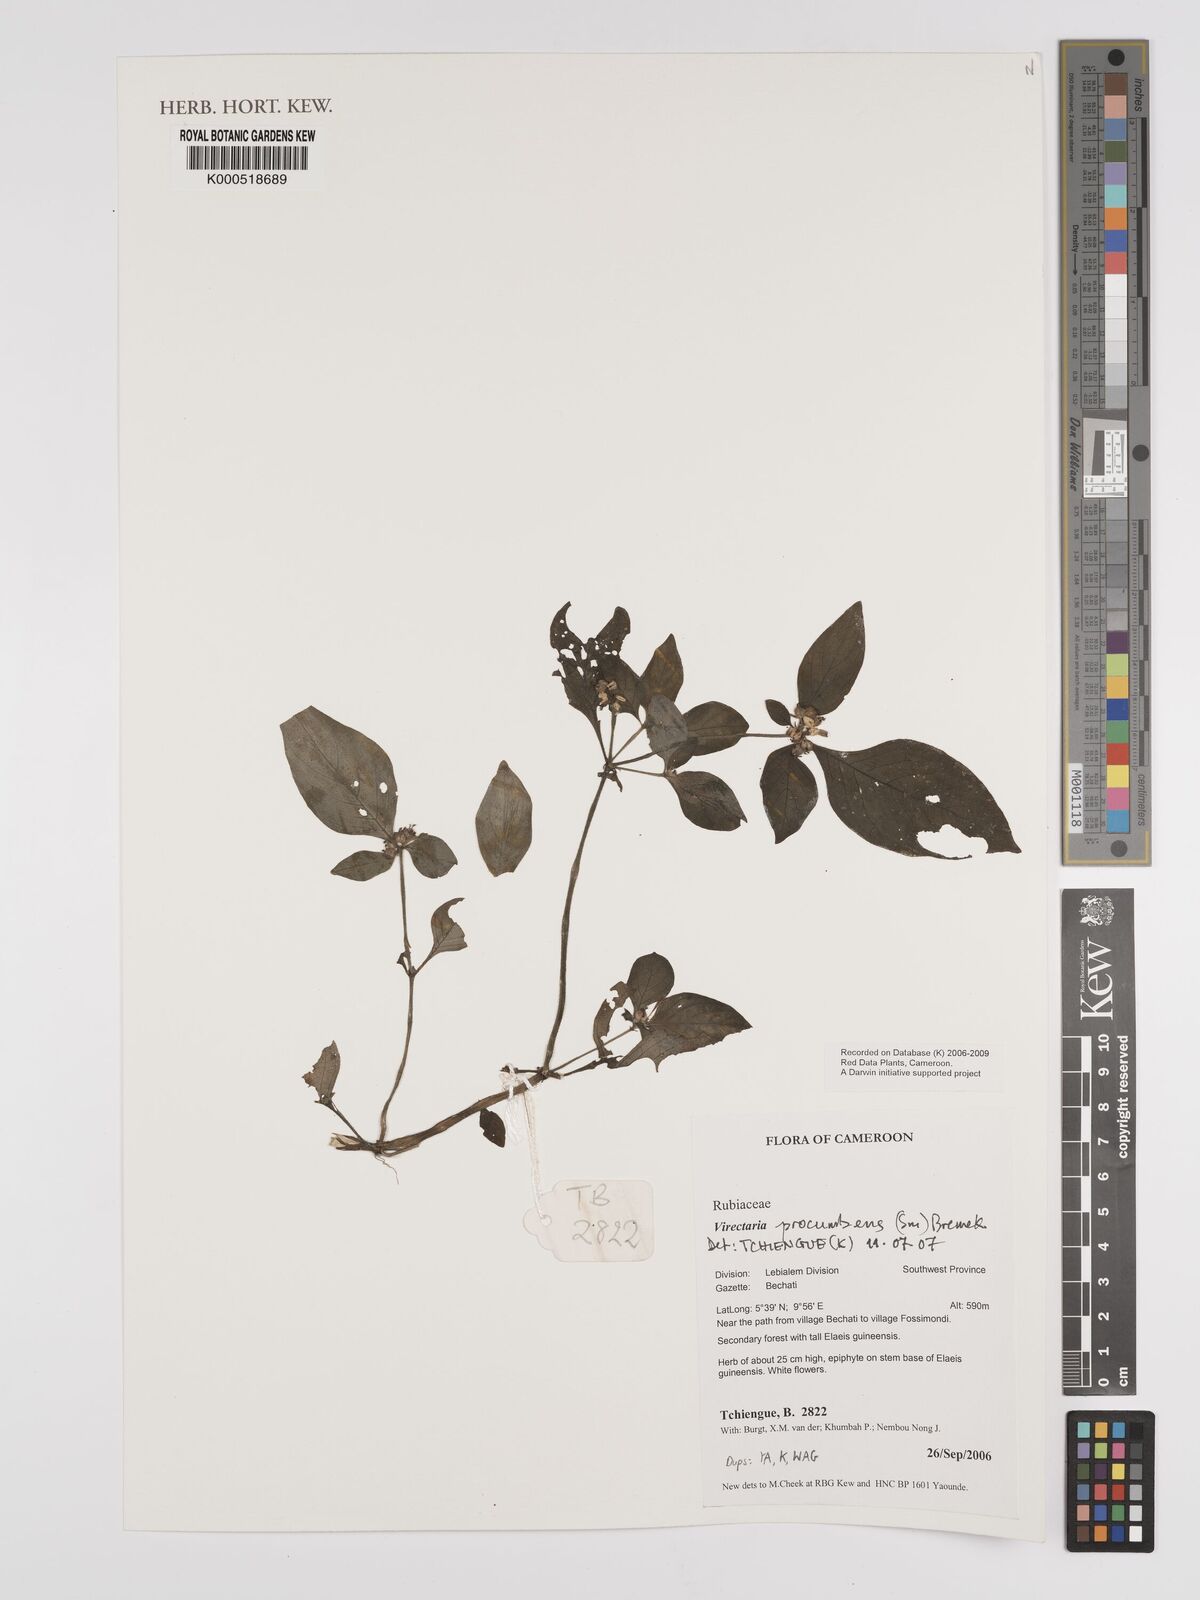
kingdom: Plantae
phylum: Tracheophyta
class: Magnoliopsida
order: Gentianales
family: Rubiaceae
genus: Virectaria
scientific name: Virectaria procumbens
